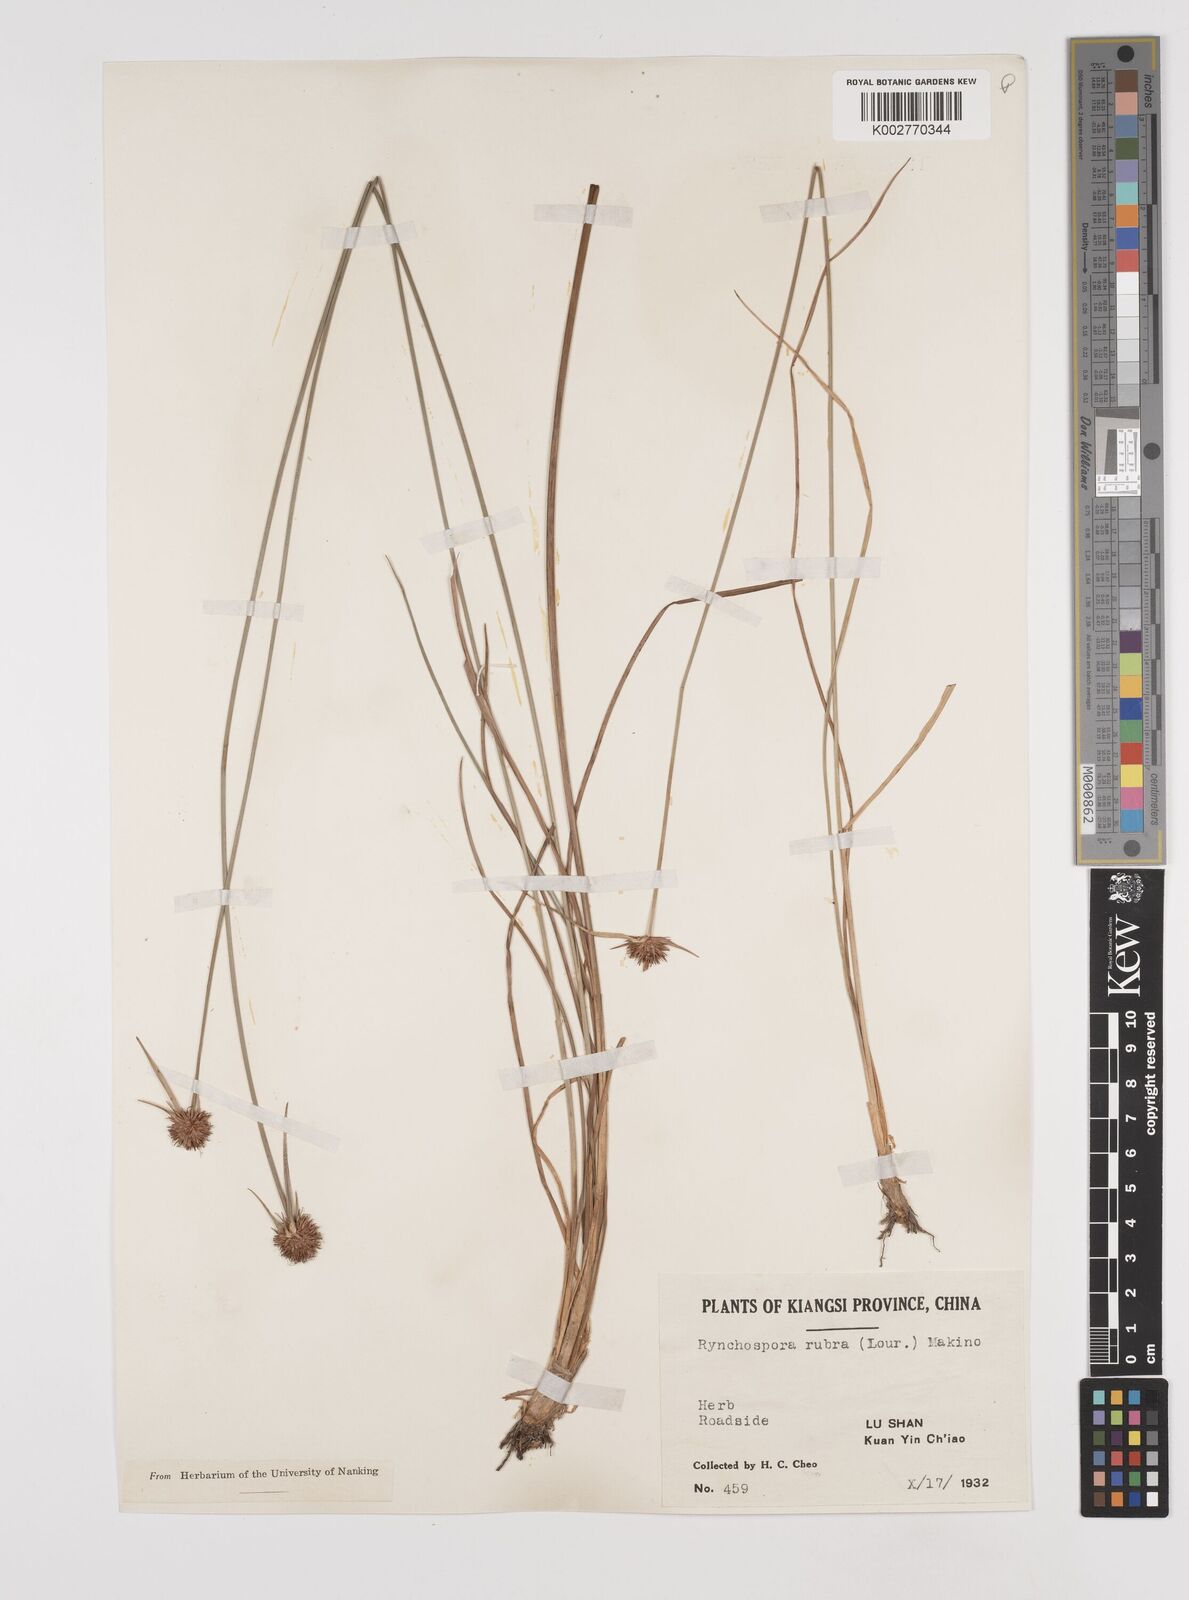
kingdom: Plantae
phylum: Tracheophyta
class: Liliopsida
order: Poales
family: Cyperaceae
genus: Rhynchospora
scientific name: Rhynchospora rubra
